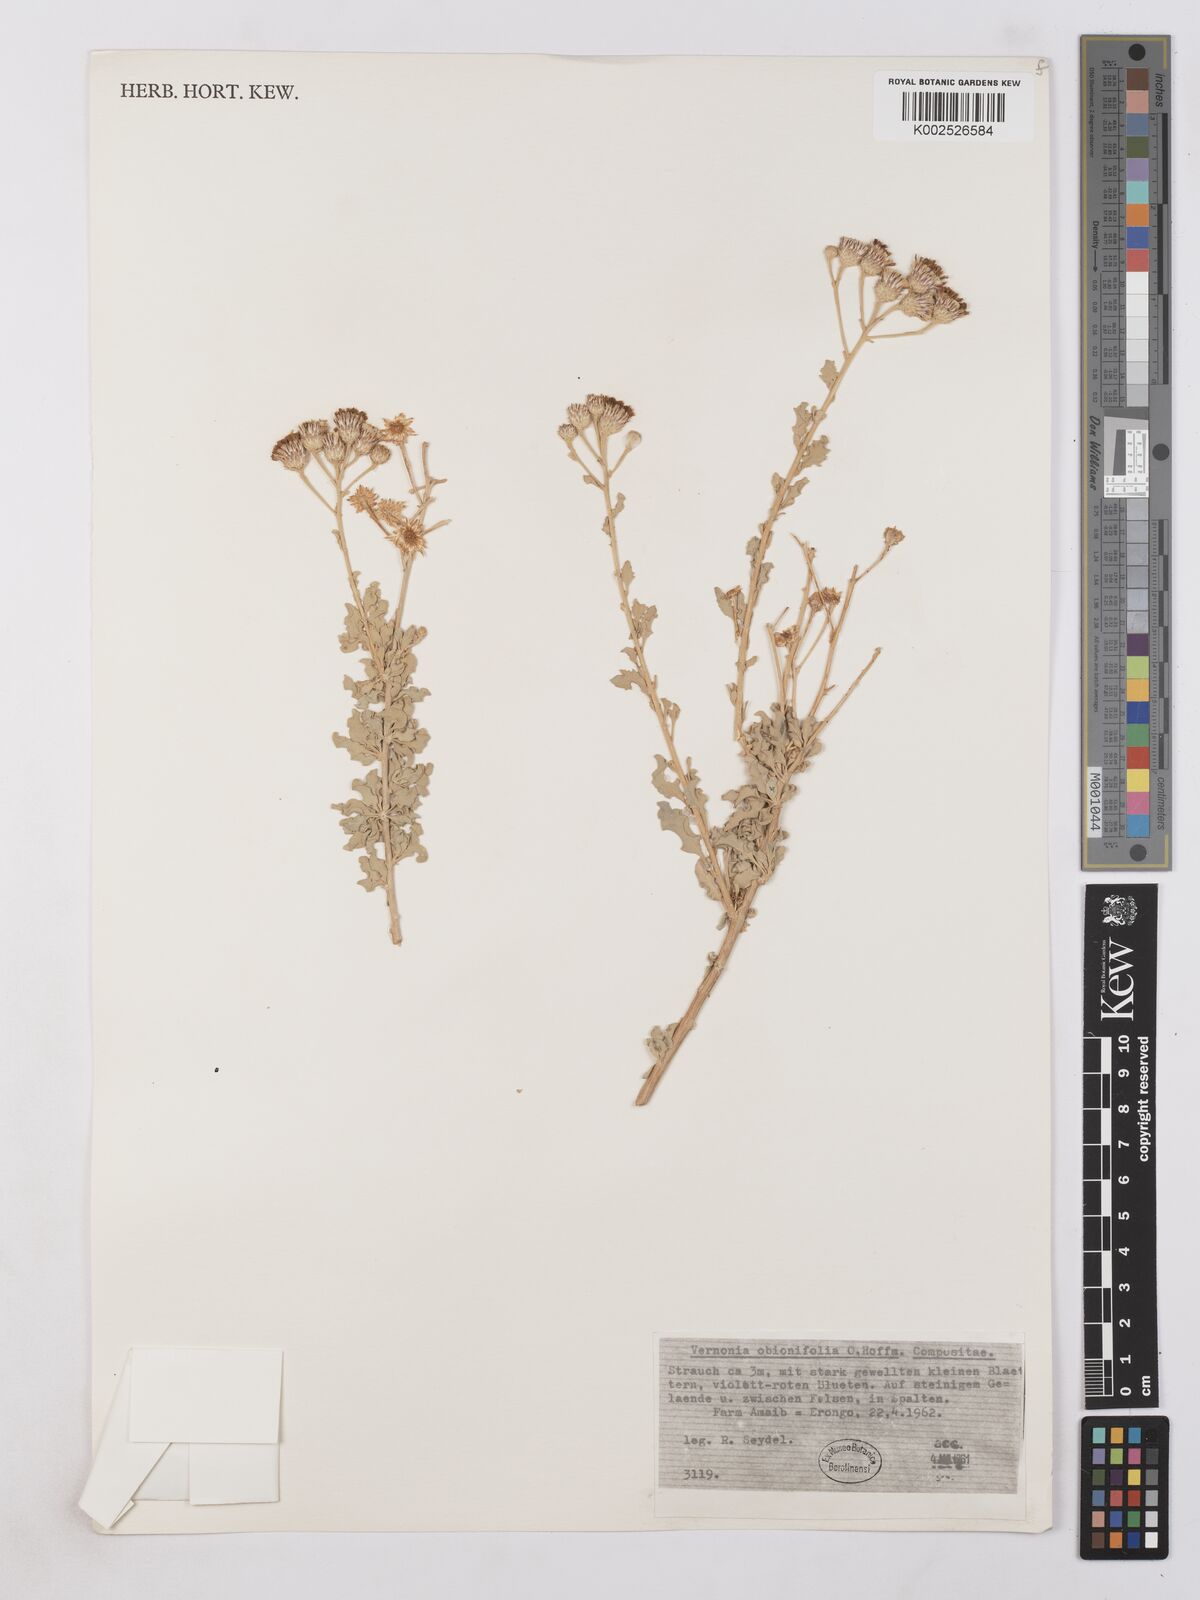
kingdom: Plantae
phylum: Tracheophyta
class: Magnoliopsida
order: Asterales
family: Asteraceae
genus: Namibithamnus
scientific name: Namibithamnus obionifolius
